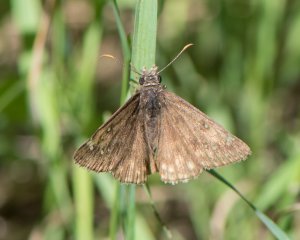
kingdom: Animalia
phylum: Arthropoda
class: Insecta
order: Lepidoptera
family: Hesperiidae
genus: Gesta
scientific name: Gesta
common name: Juvenal's Duskywing
